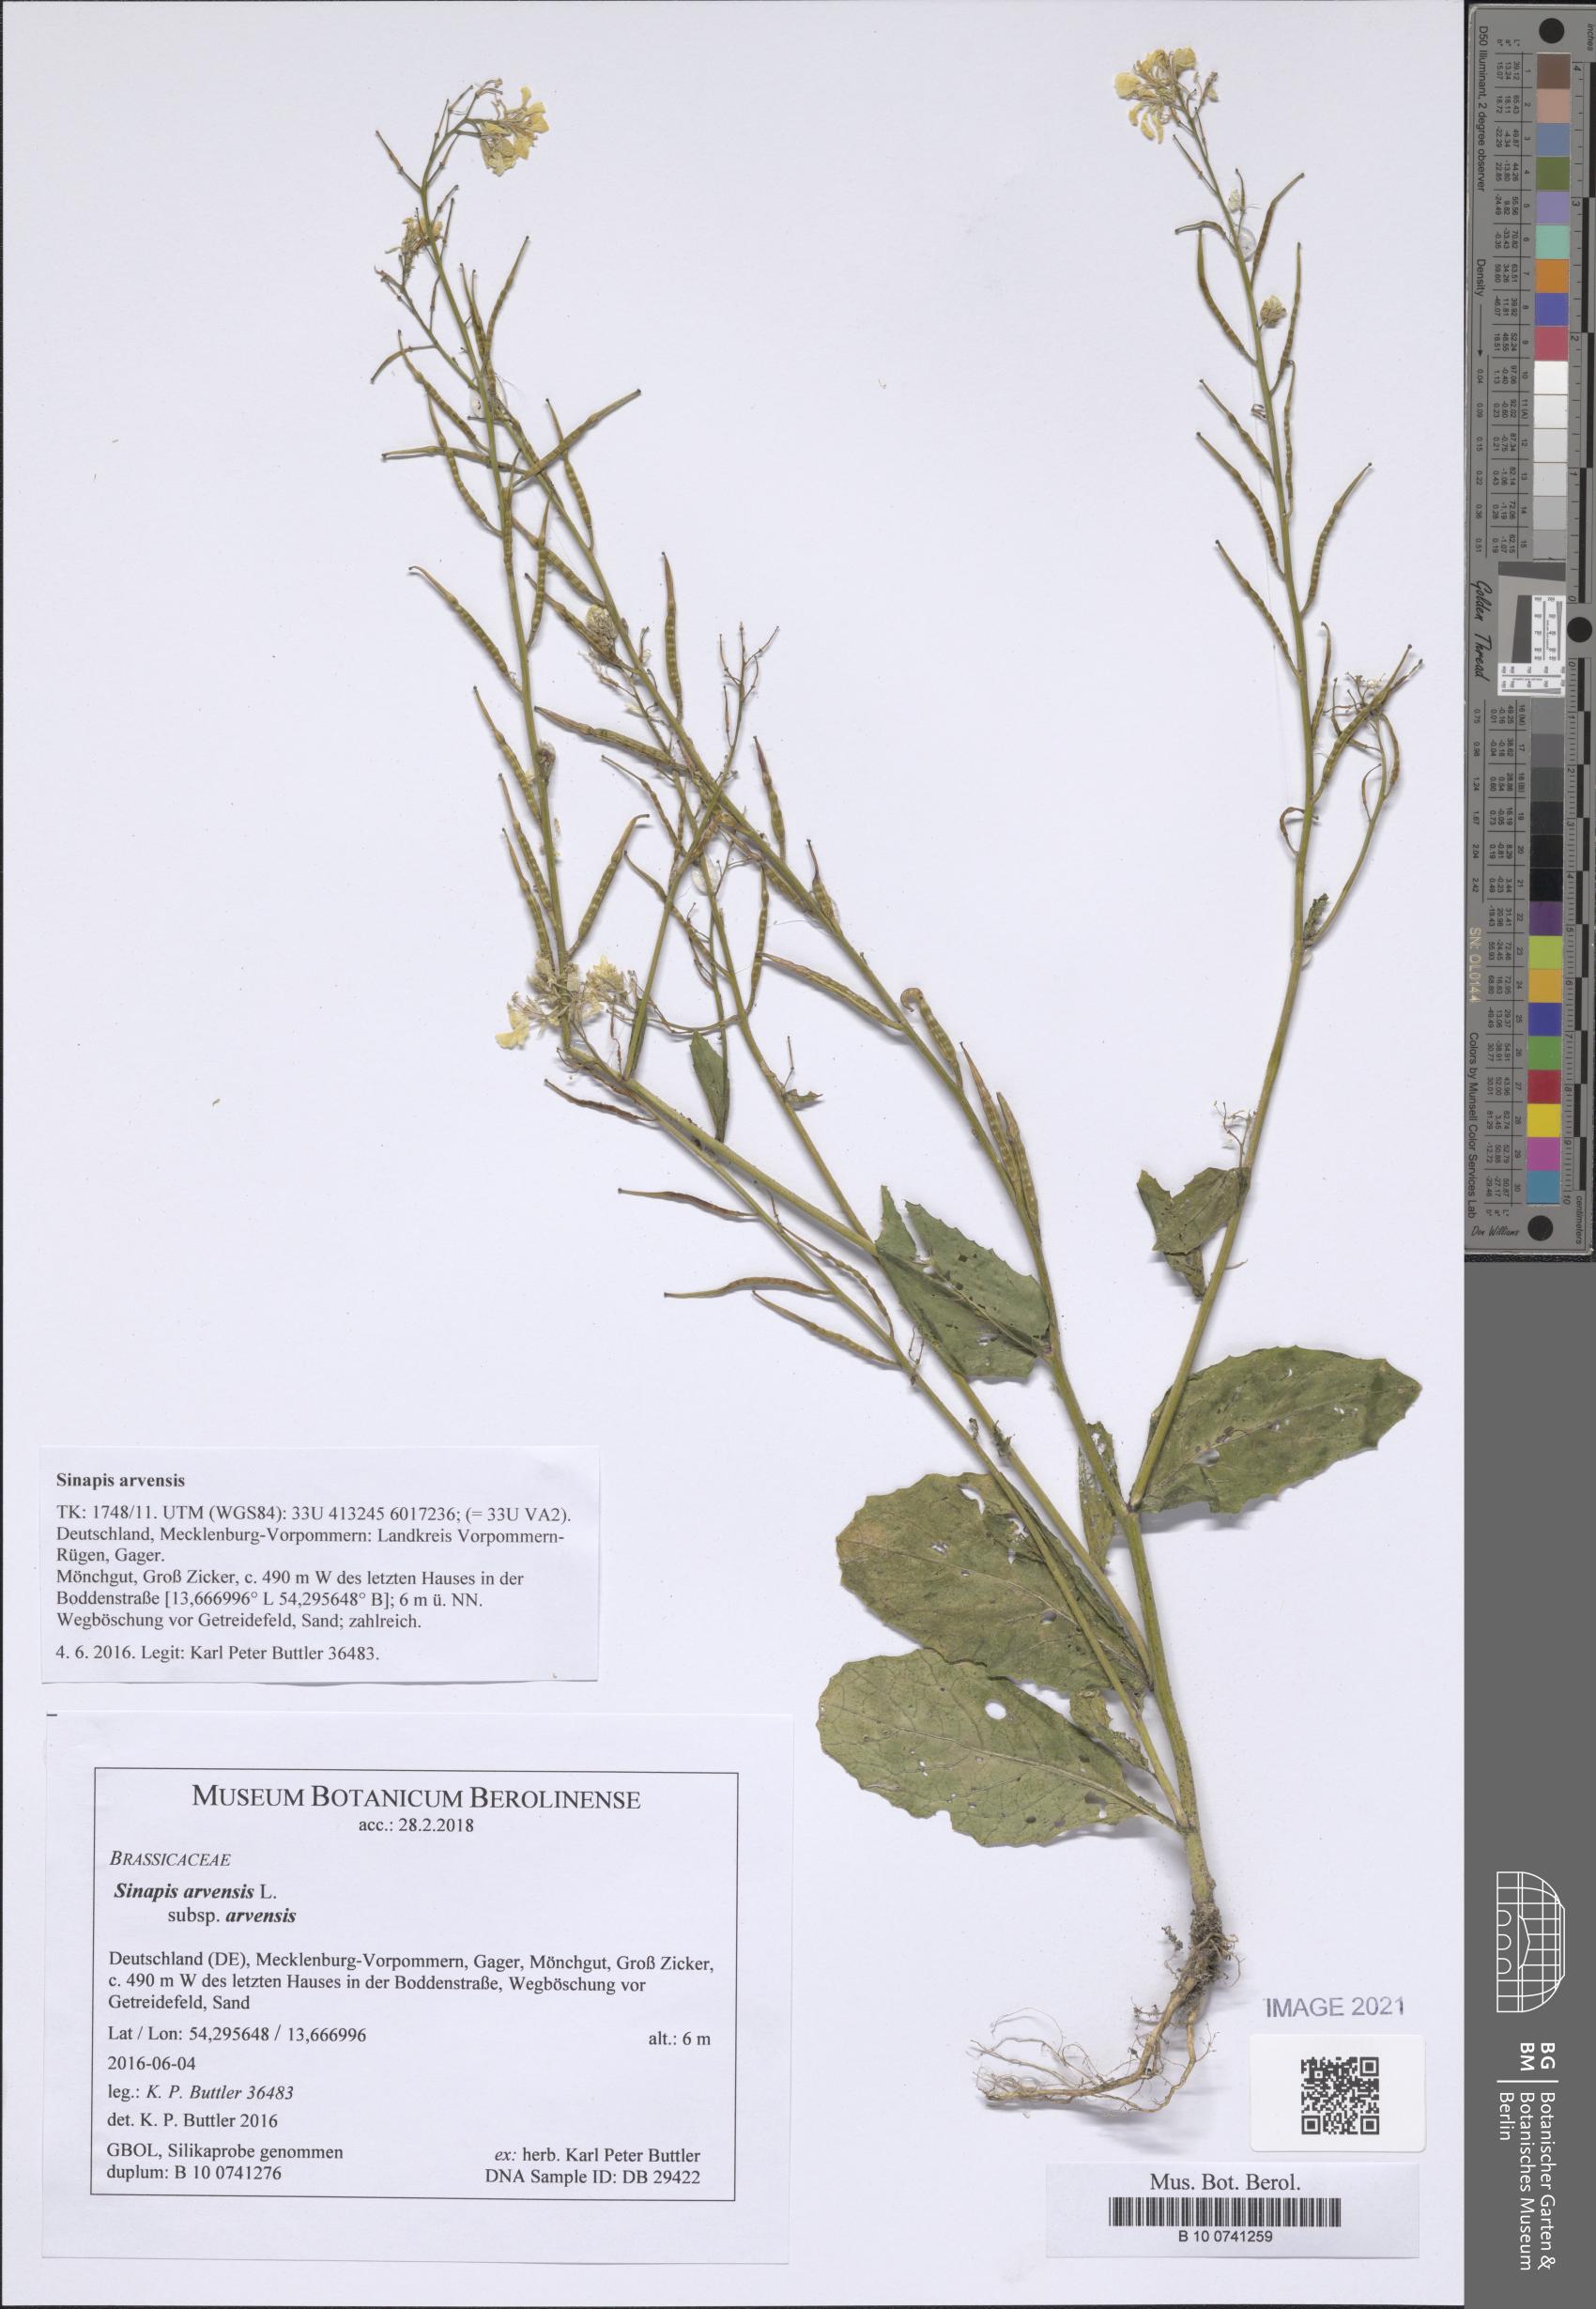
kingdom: Plantae
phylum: Tracheophyta
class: Magnoliopsida
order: Brassicales
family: Brassicaceae
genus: Sinapis
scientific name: Sinapis arvensis
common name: Charlock
